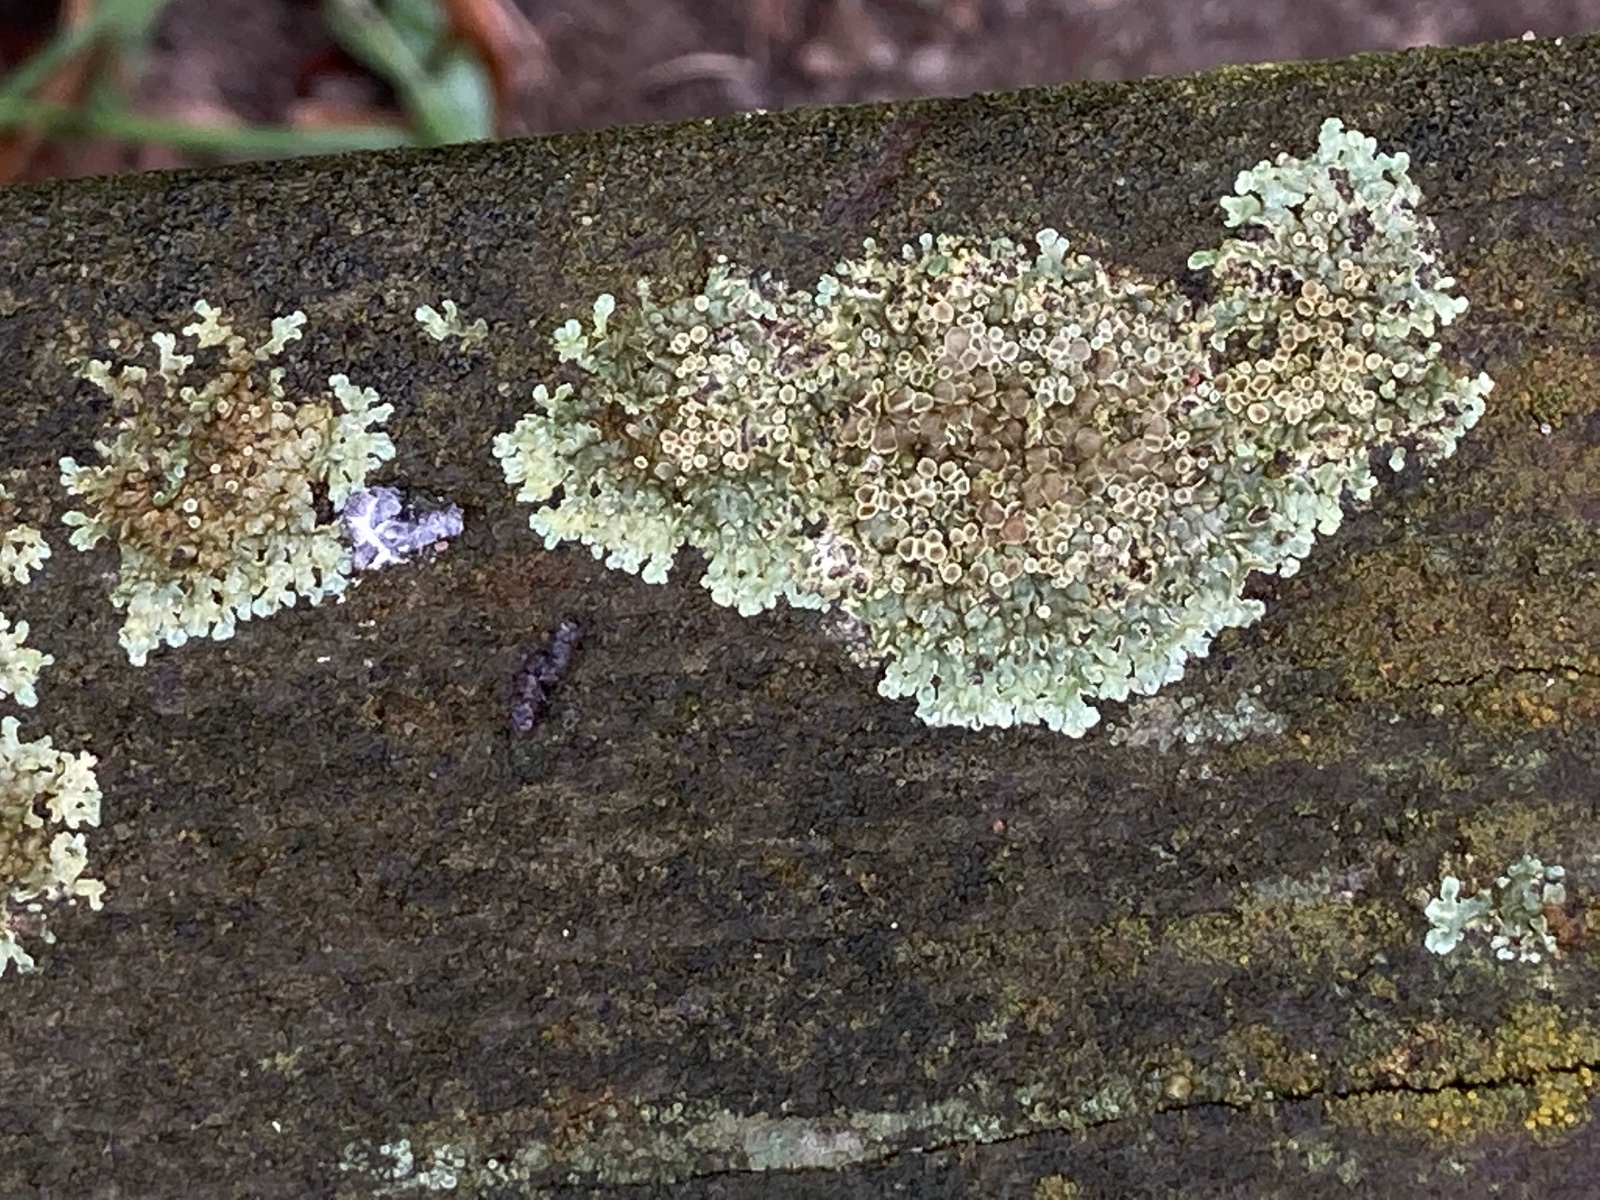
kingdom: Fungi
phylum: Ascomycota
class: Lecanoromycetes
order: Lecanorales
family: Lecanoraceae
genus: Protoparmeliopsis
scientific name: Protoparmeliopsis muralis
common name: randfliget kantskivelav
